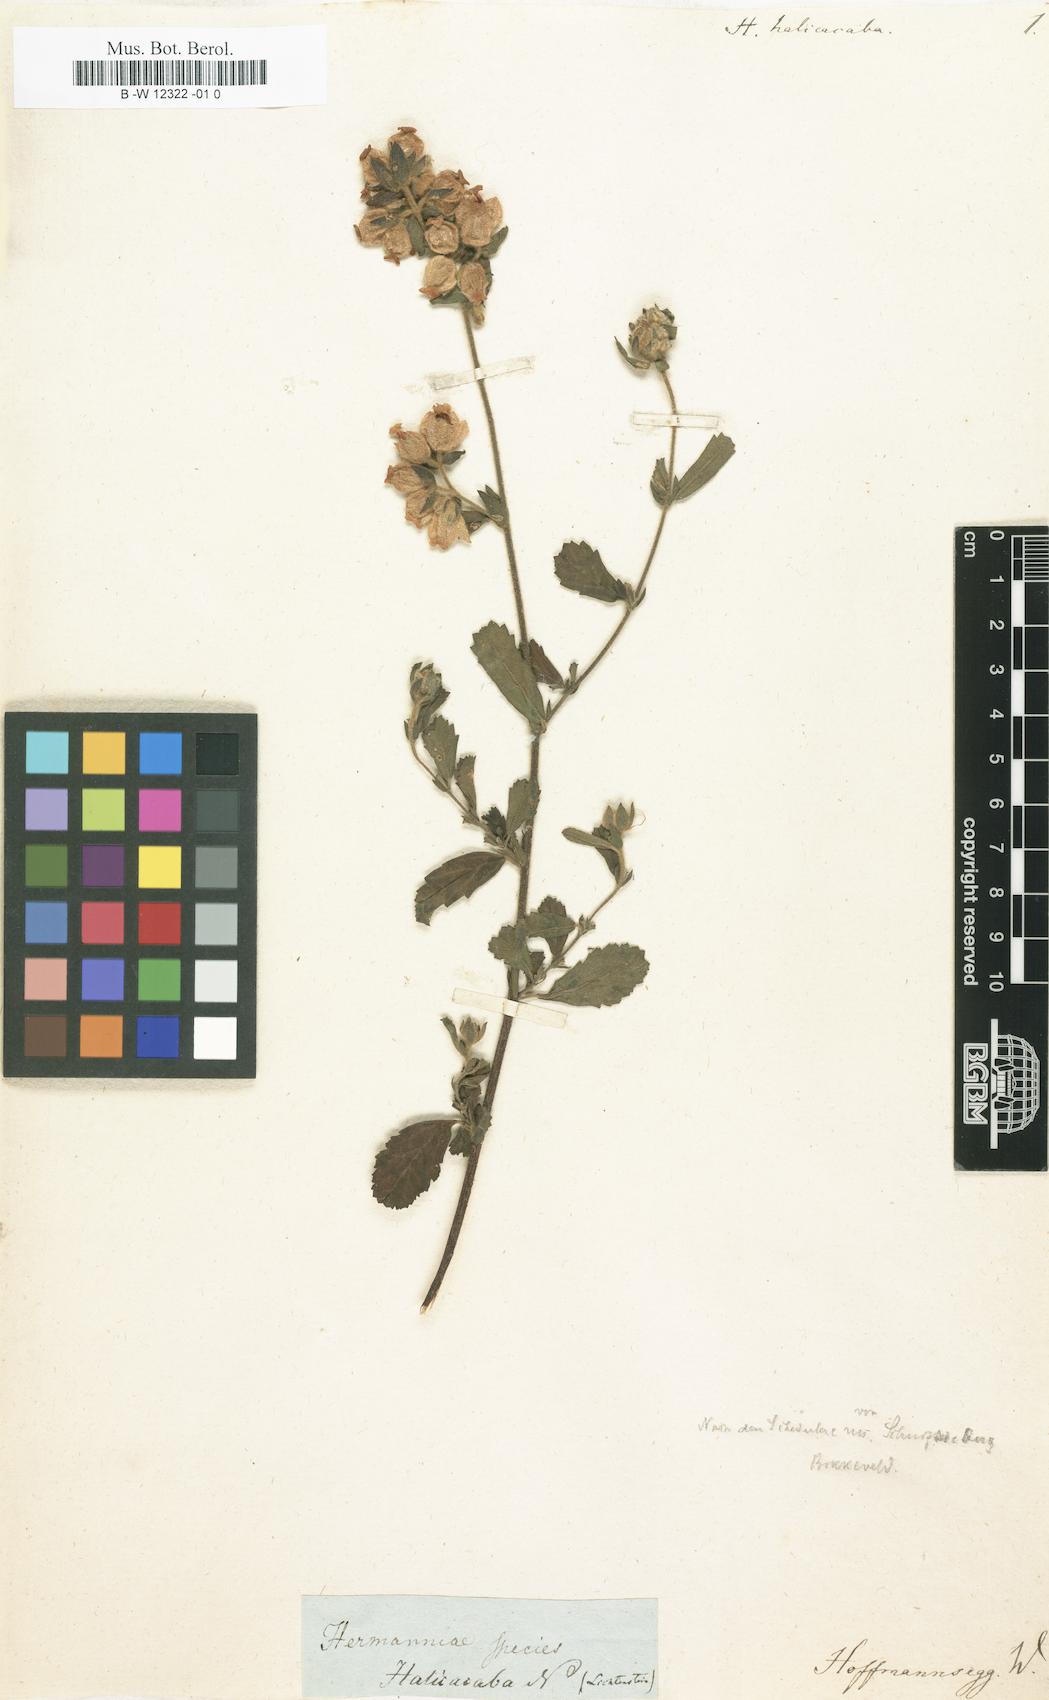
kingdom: Plantae
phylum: Tracheophyta
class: Magnoliopsida
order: Malvales
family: Malvaceae
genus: Hermannia
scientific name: Hermannia abrotanoides
